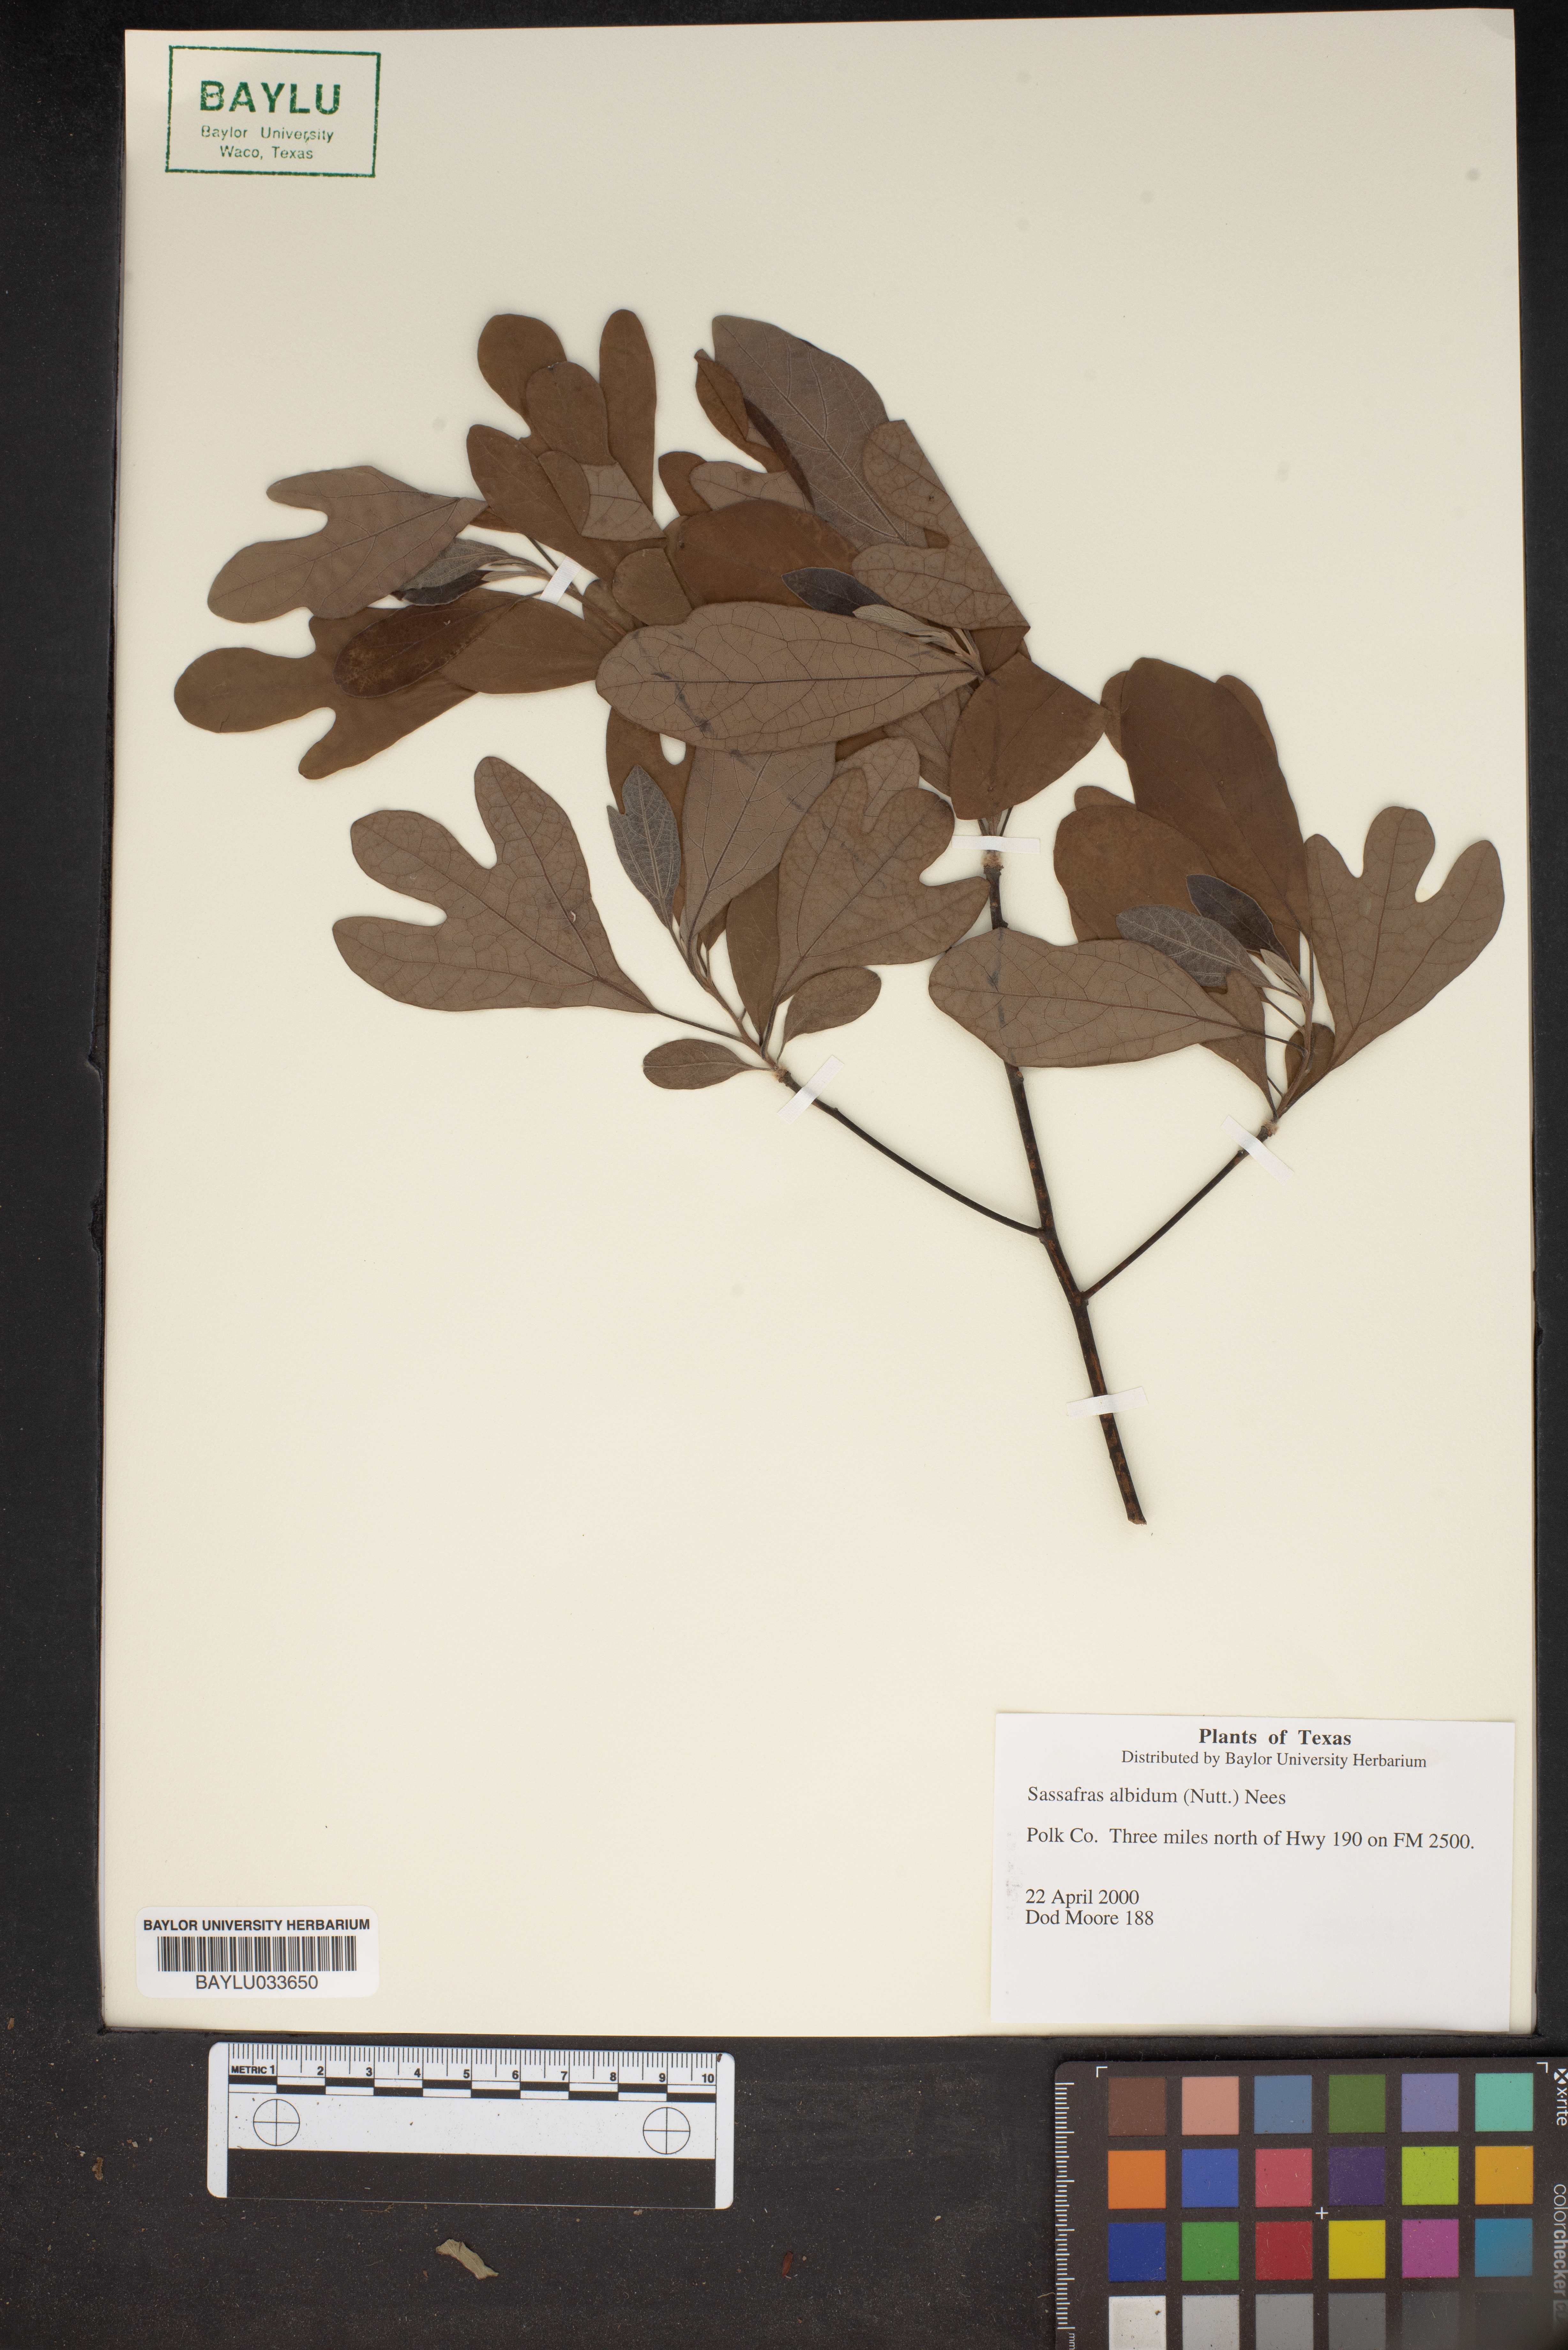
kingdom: Plantae
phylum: Tracheophyta
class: Magnoliopsida
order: Laurales
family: Lauraceae
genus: Sassafras
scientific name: Sassafras albidum
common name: Sassafras
